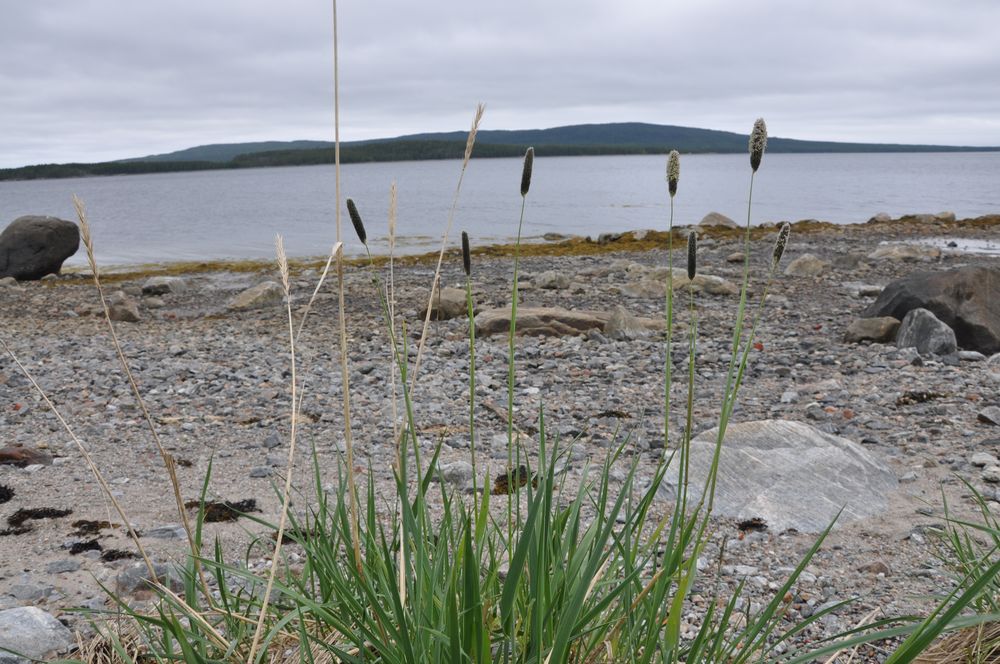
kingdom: Plantae
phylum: Tracheophyta
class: Liliopsida
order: Poales
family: Poaceae
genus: Alopecurus
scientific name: Alopecurus arundinaceus
